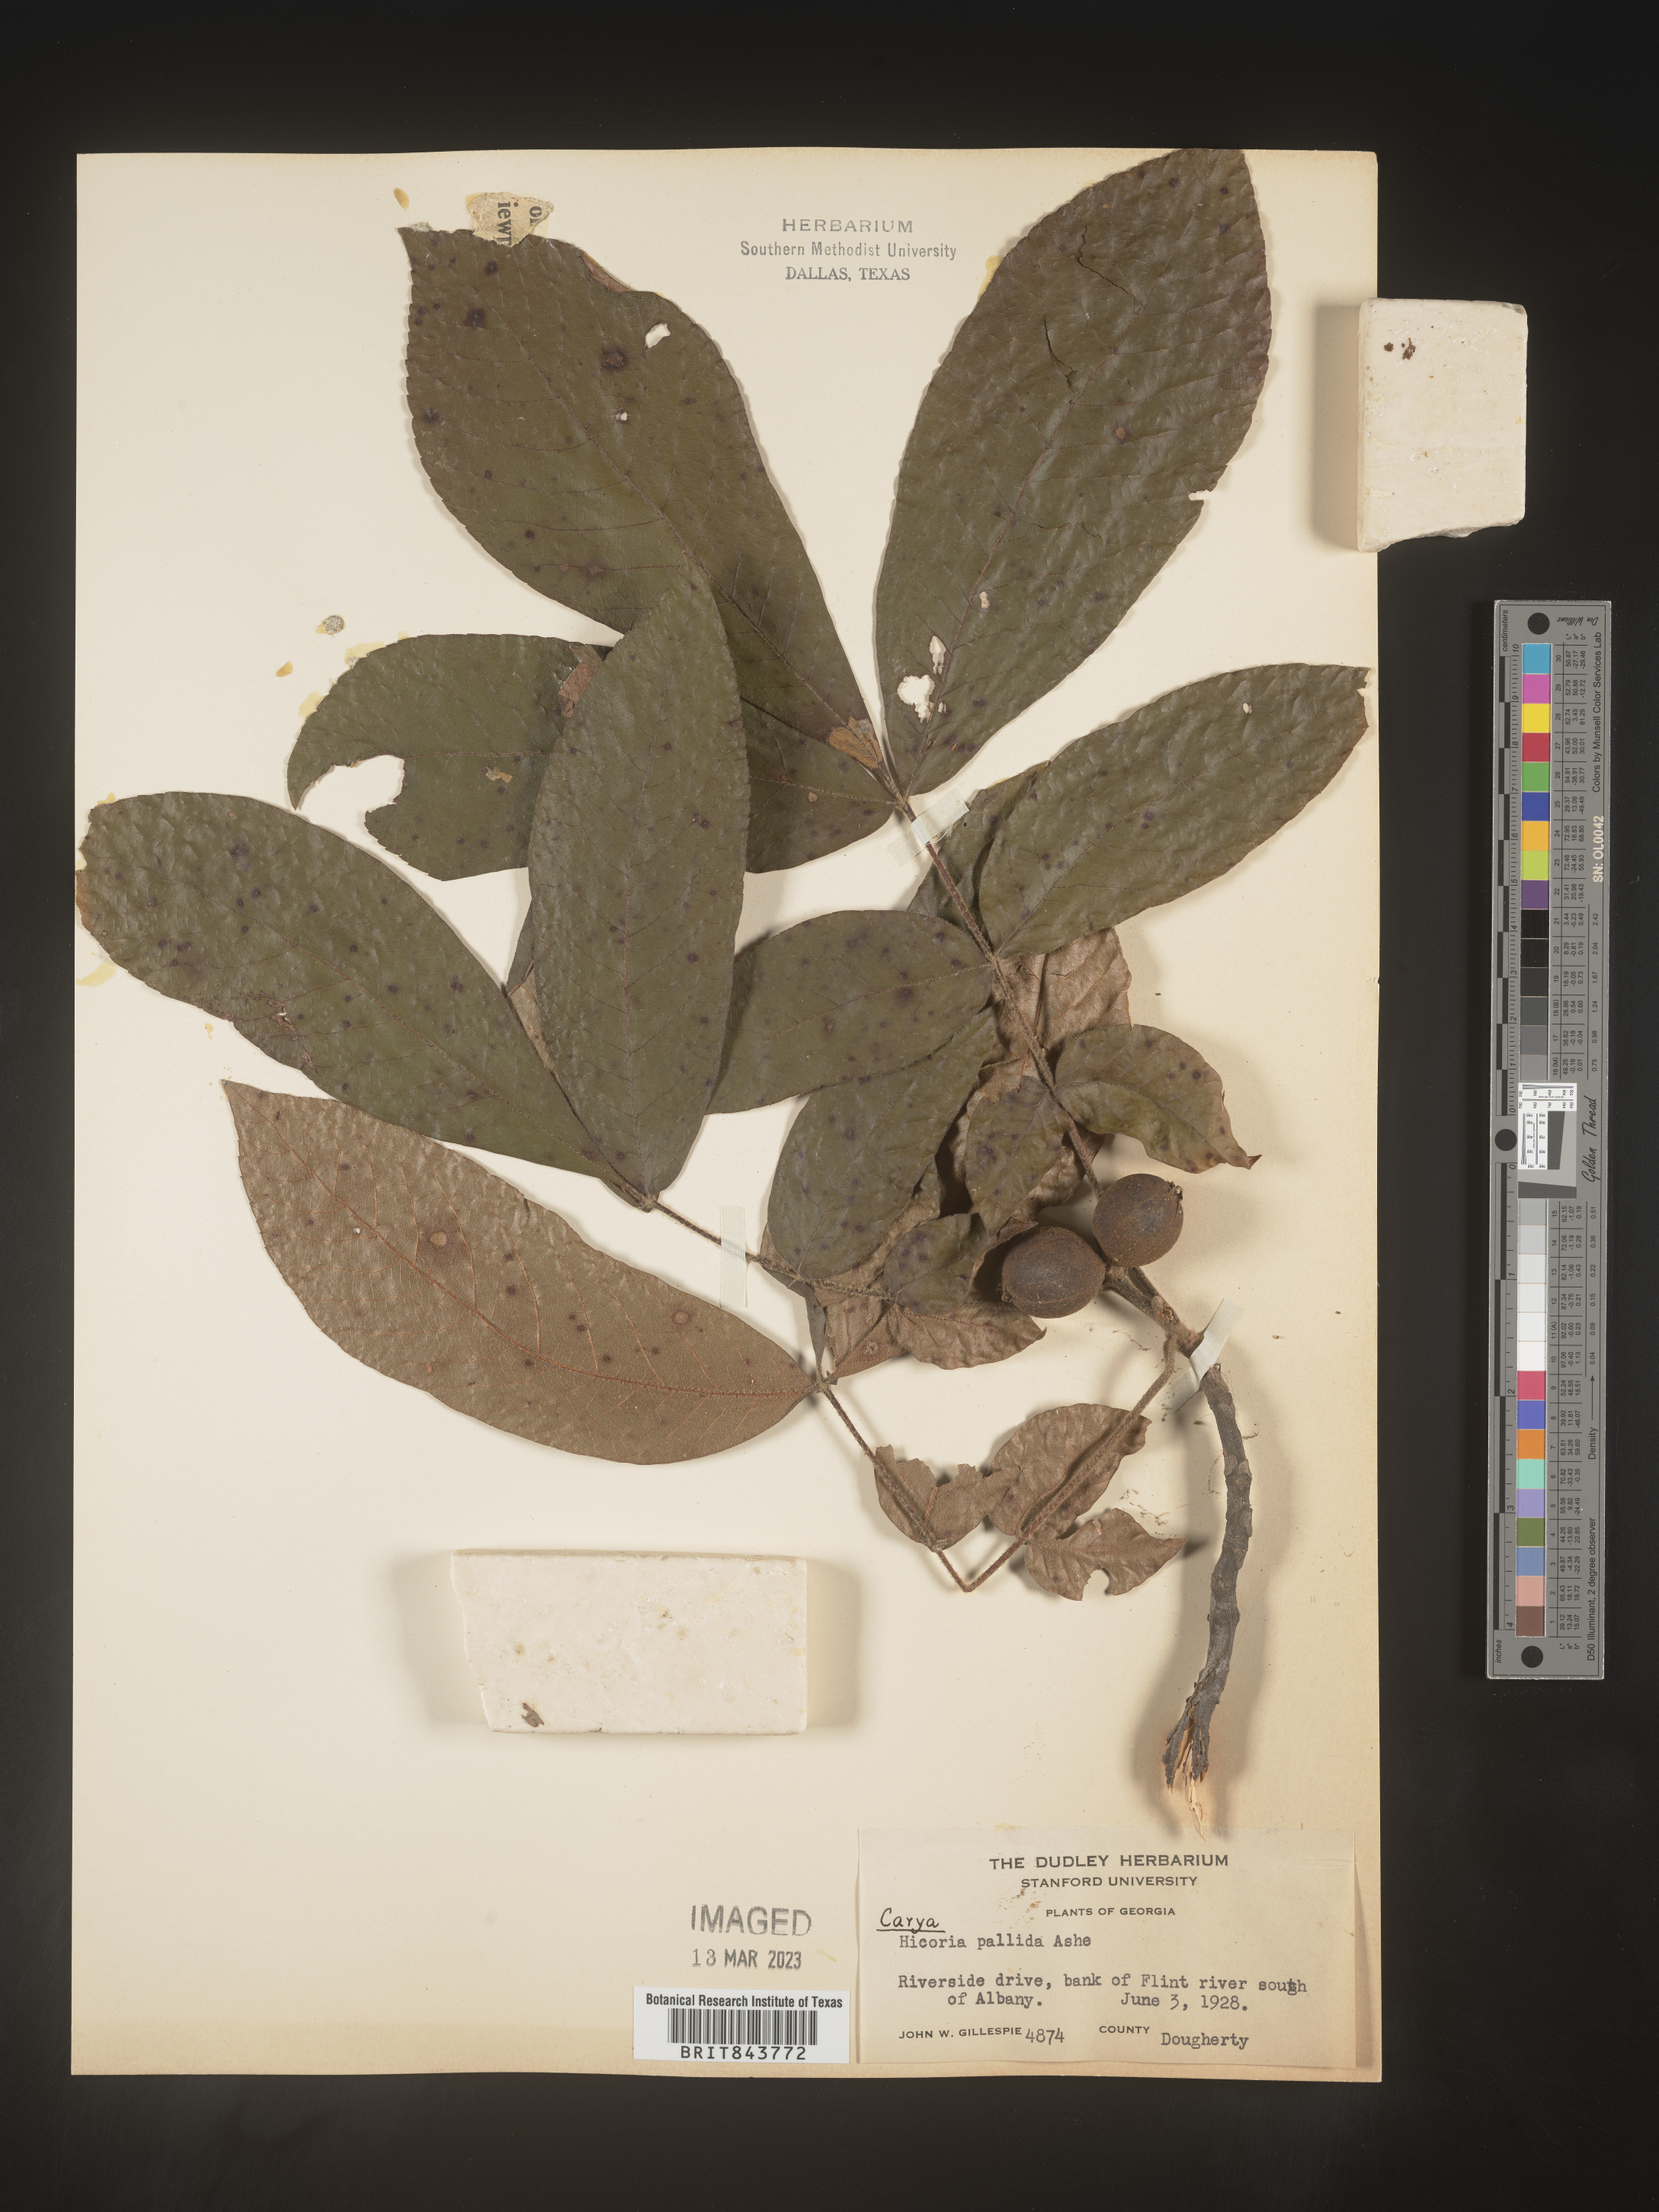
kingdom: Plantae
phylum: Tracheophyta
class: Magnoliopsida
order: Fagales
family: Juglandaceae
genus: Carya
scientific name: Carya pallida
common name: Sand hickory
